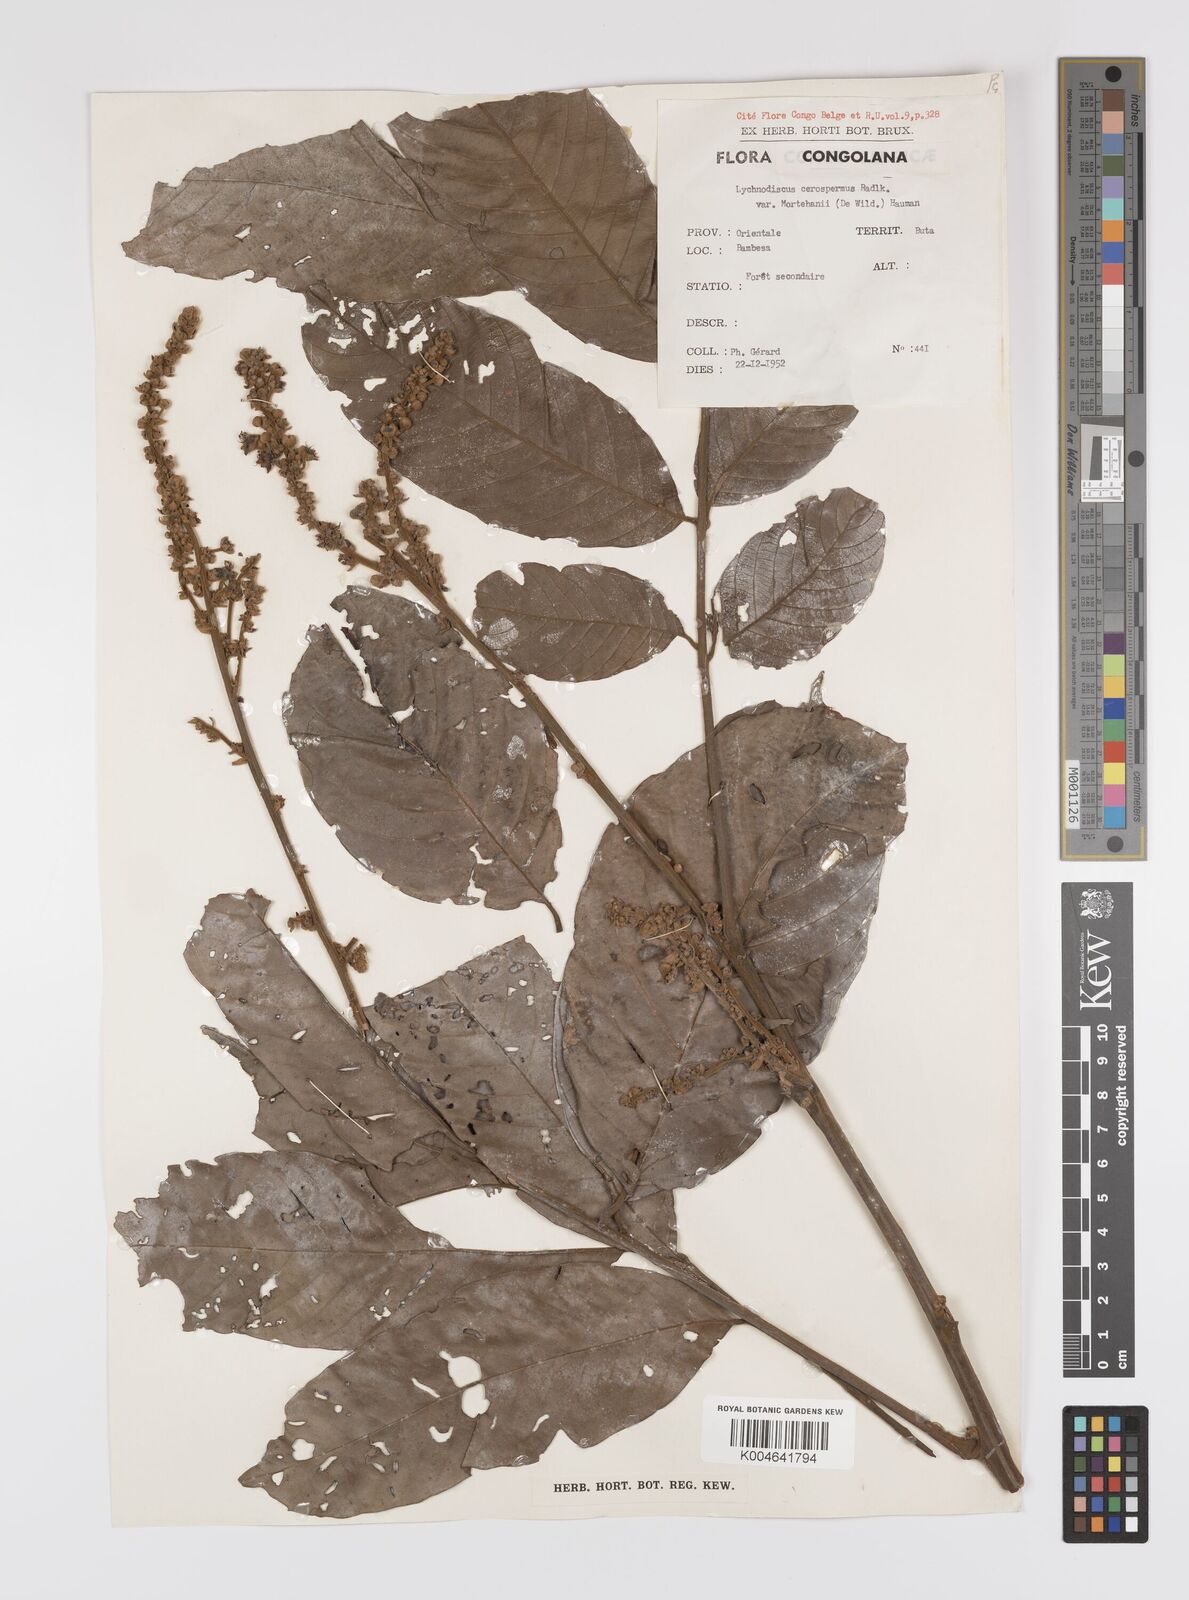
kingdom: Plantae
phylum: Tracheophyta
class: Magnoliopsida
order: Sapindales
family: Sapindaceae
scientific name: Sapindaceae
